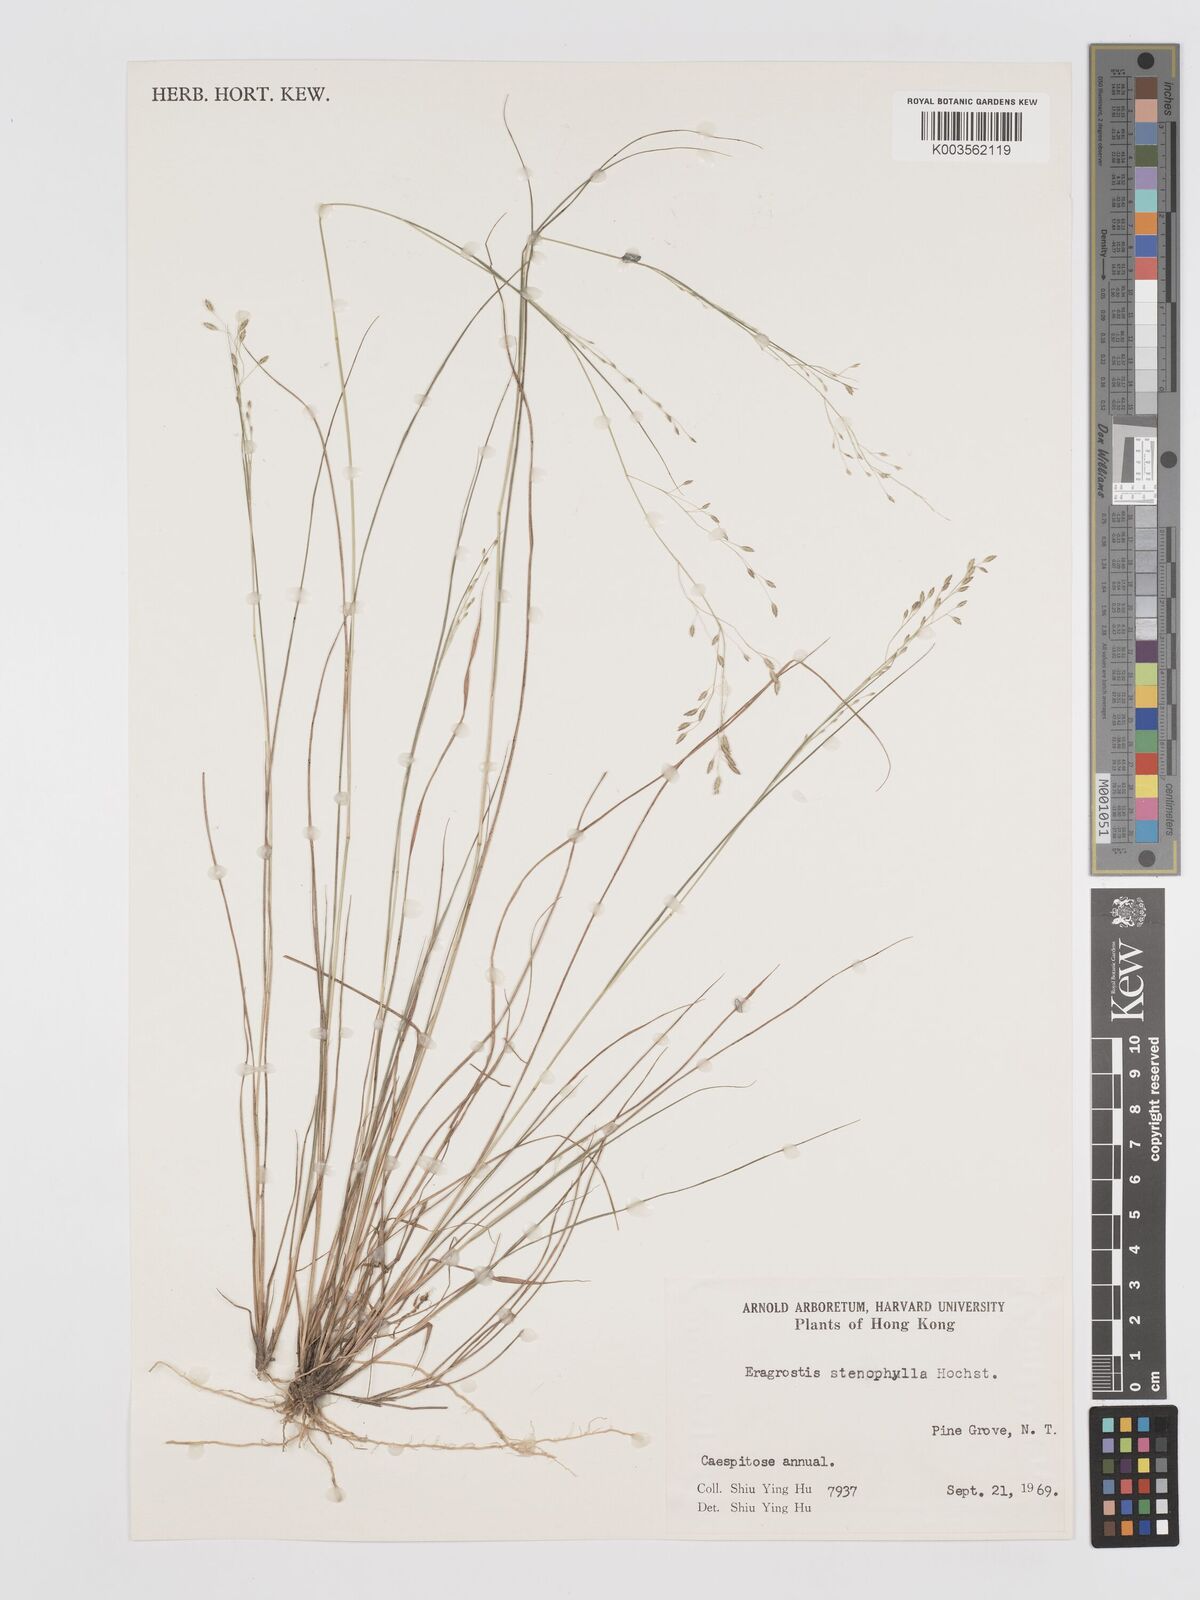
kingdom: Plantae
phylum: Tracheophyta
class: Liliopsida
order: Poales
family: Poaceae
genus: Eragrostis
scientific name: Eragrostis gangetica
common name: Slimflower lovegrass
